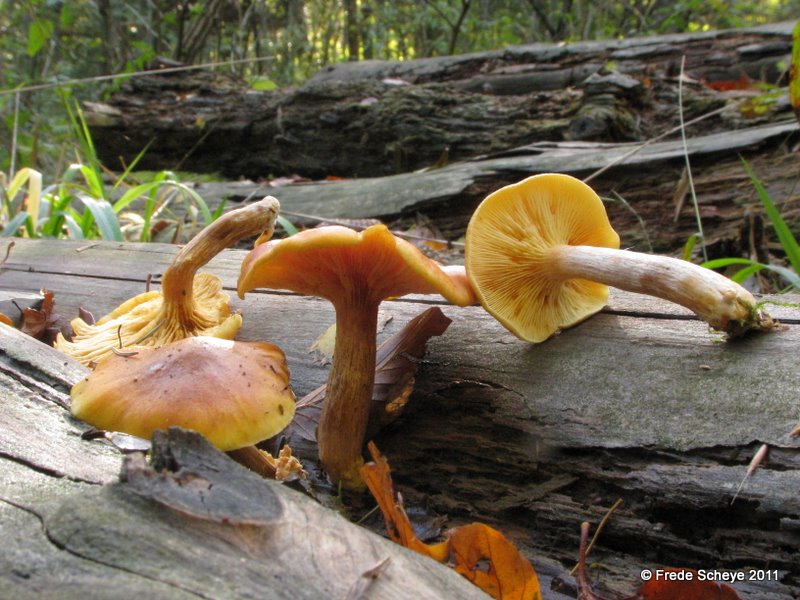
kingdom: Fungi
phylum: Basidiomycota
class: Agaricomycetes
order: Agaricales
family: Hymenogastraceae
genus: Gymnopilus
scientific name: Gymnopilus penetrans
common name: plettet flammehat
